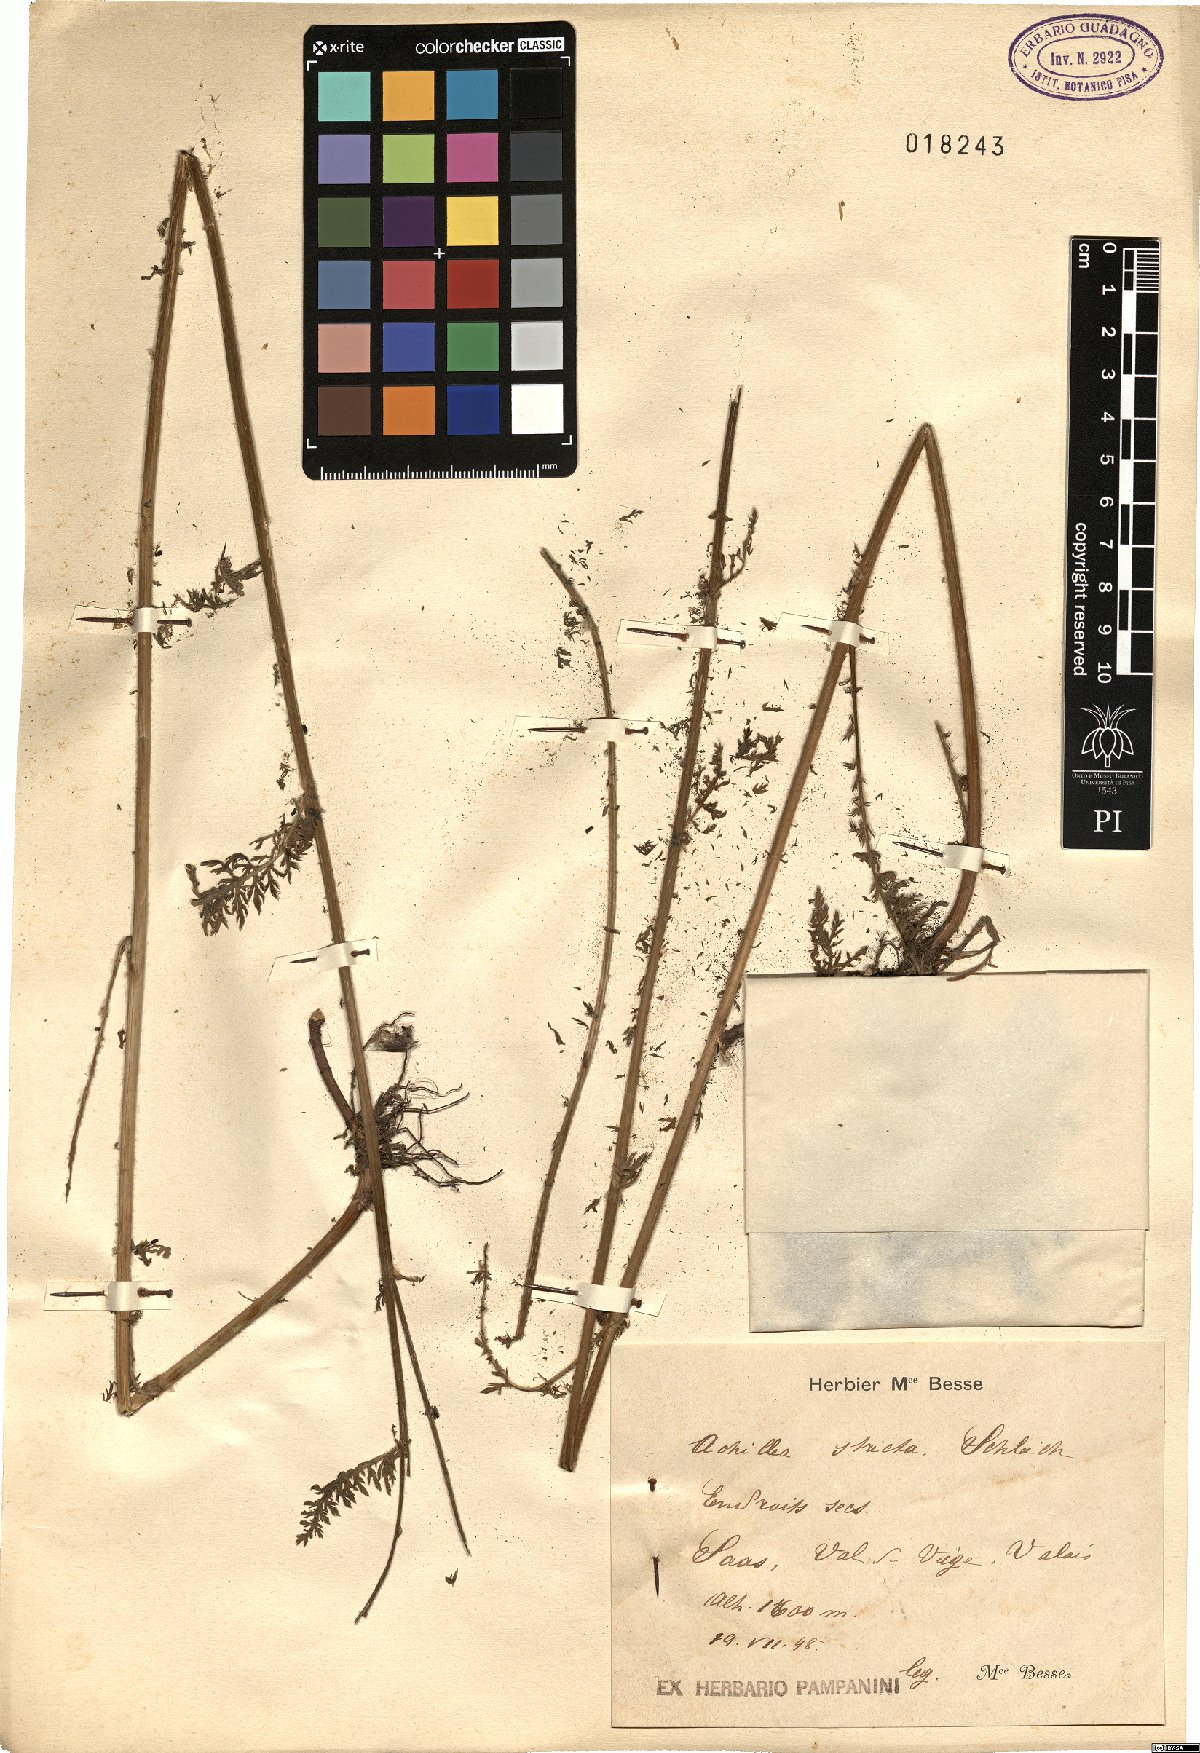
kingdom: Plantae
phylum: Tracheophyta
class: Magnoliopsida
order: Asterales
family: Asteraceae
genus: Achillea
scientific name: Achillea distans
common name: Tall yarrow
